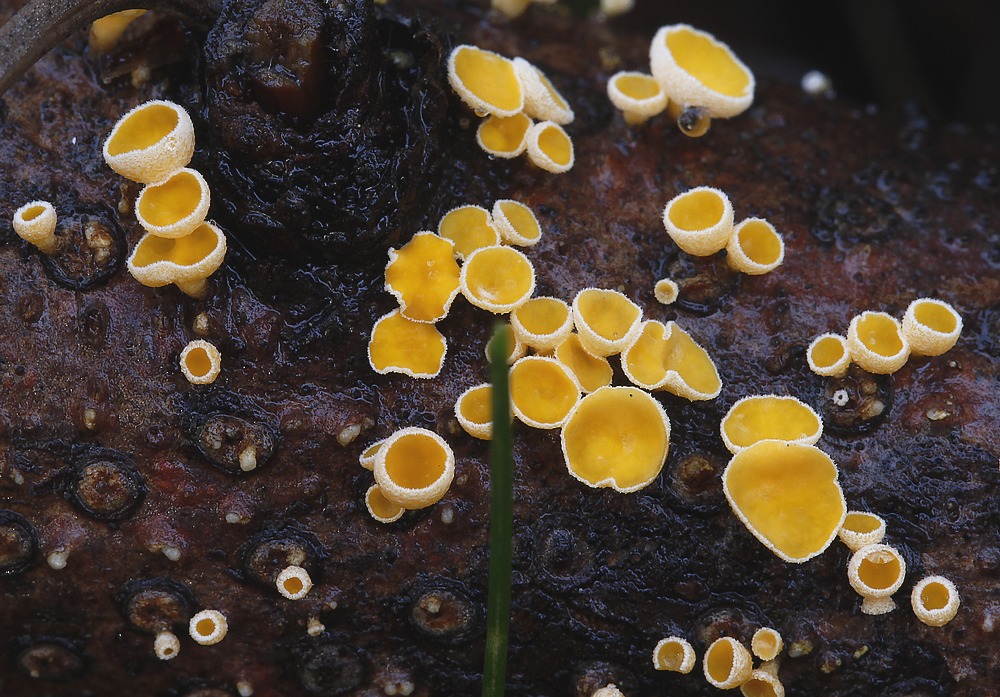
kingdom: Fungi
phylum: Ascomycota
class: Leotiomycetes
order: Helotiales
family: Lachnaceae
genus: Lachnellula
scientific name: Lachnellula subtilissima
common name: gran-frynseskive
